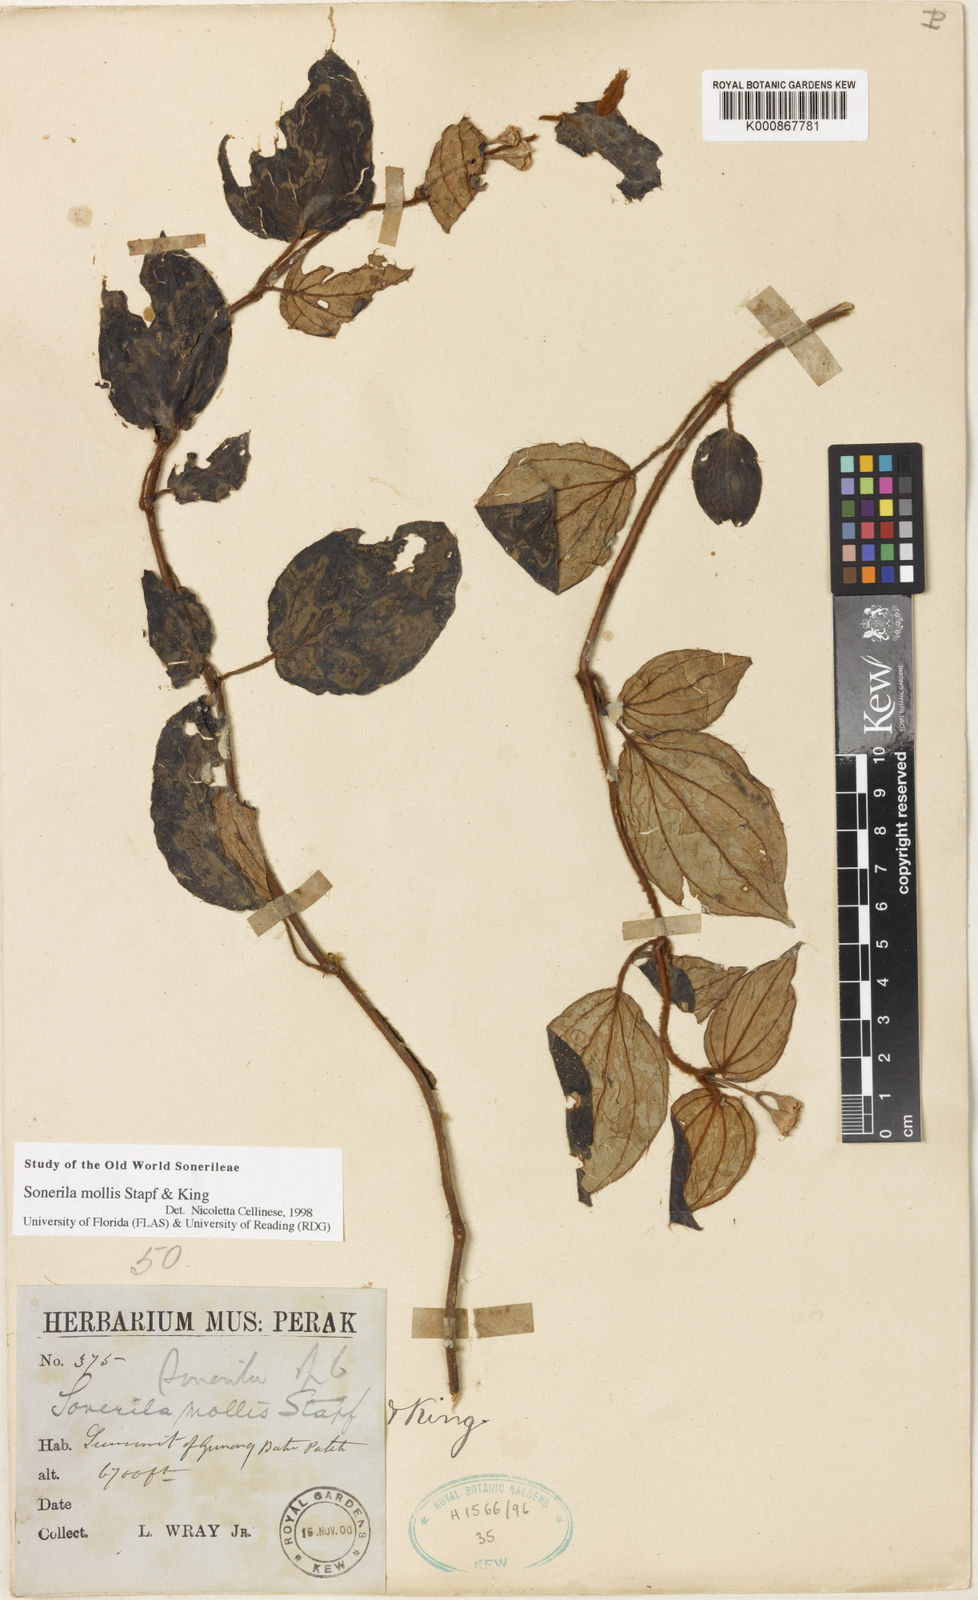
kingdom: Plantae
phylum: Tracheophyta
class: Magnoliopsida
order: Myrtales
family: Melastomataceae
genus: Sonerila
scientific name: Sonerila mollis
